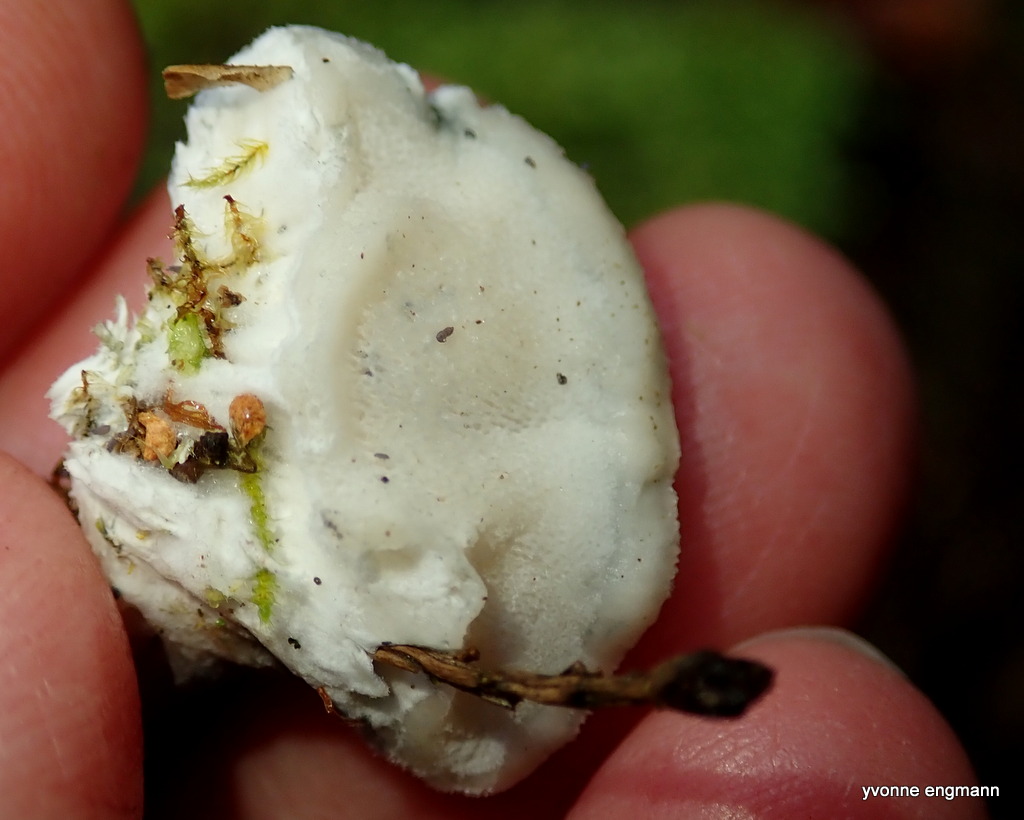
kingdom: Fungi
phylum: Basidiomycota
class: Agaricomycetes
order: Polyporales
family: Polyporaceae
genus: Cyanosporus
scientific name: Cyanosporus caesius
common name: blålig kødporesvamp
